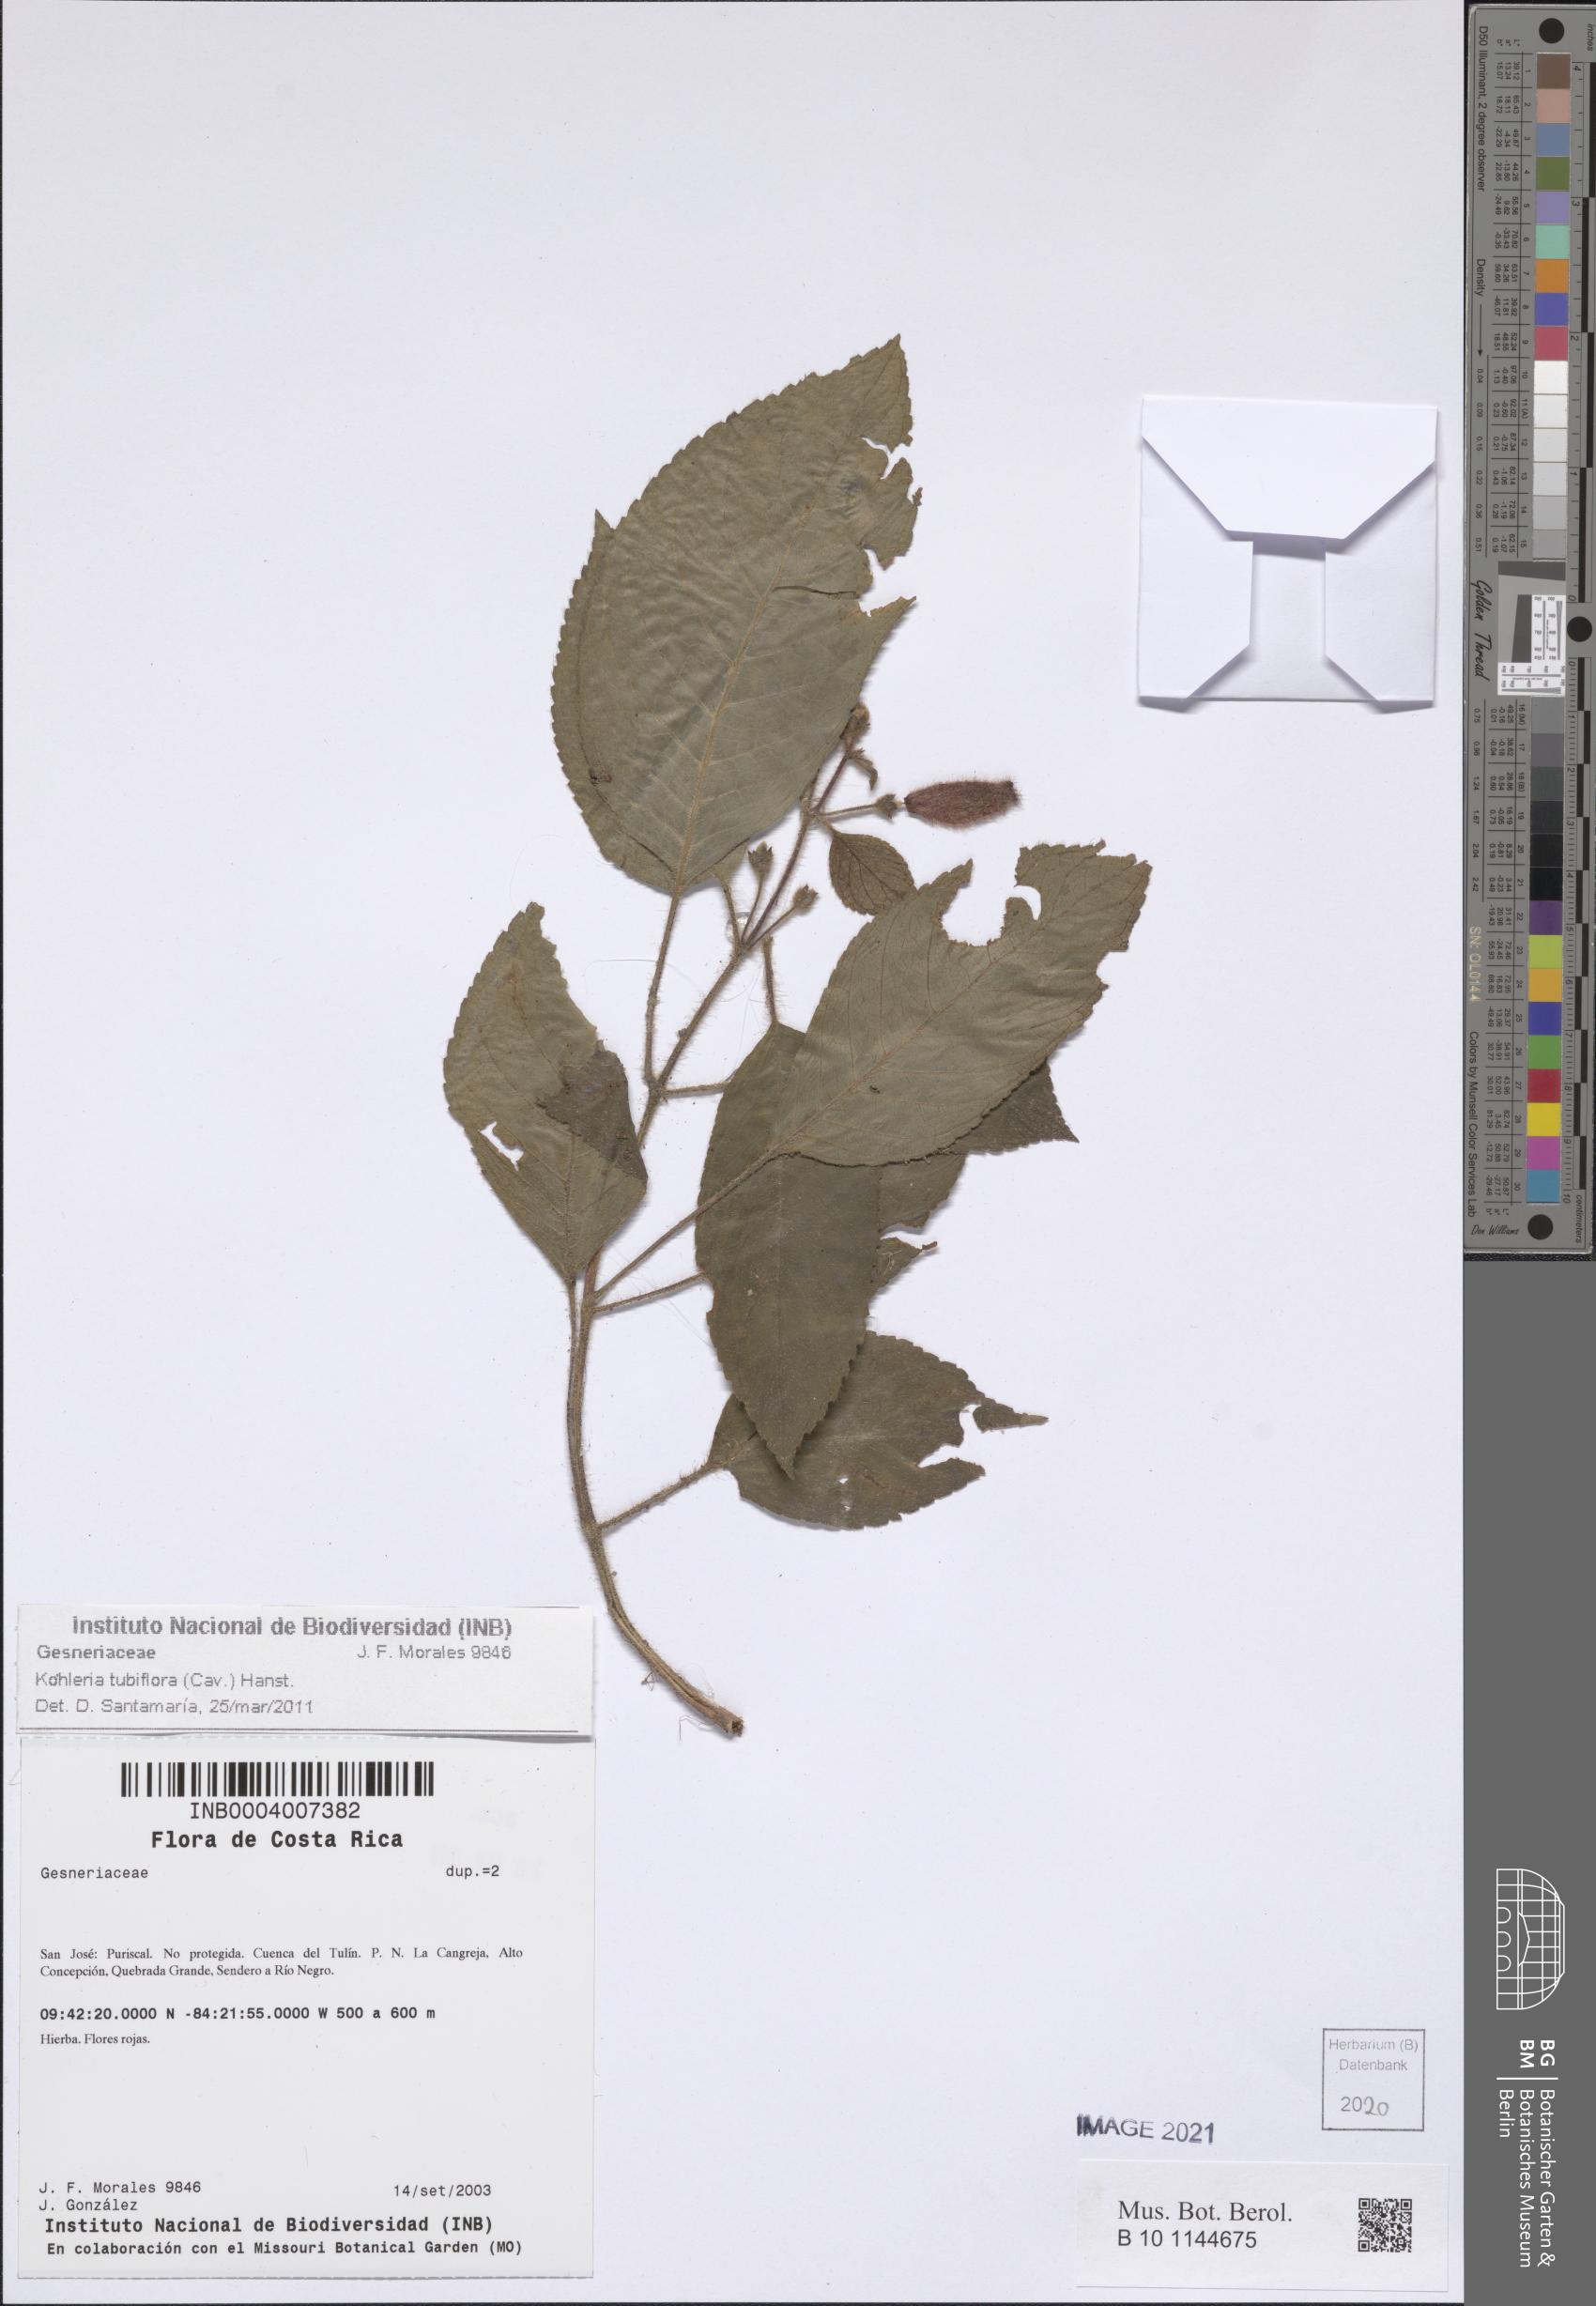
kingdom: Plantae
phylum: Tracheophyta
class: Magnoliopsida
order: Lamiales
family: Gesneriaceae
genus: Kohleria
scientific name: Kohleria tubiflora
